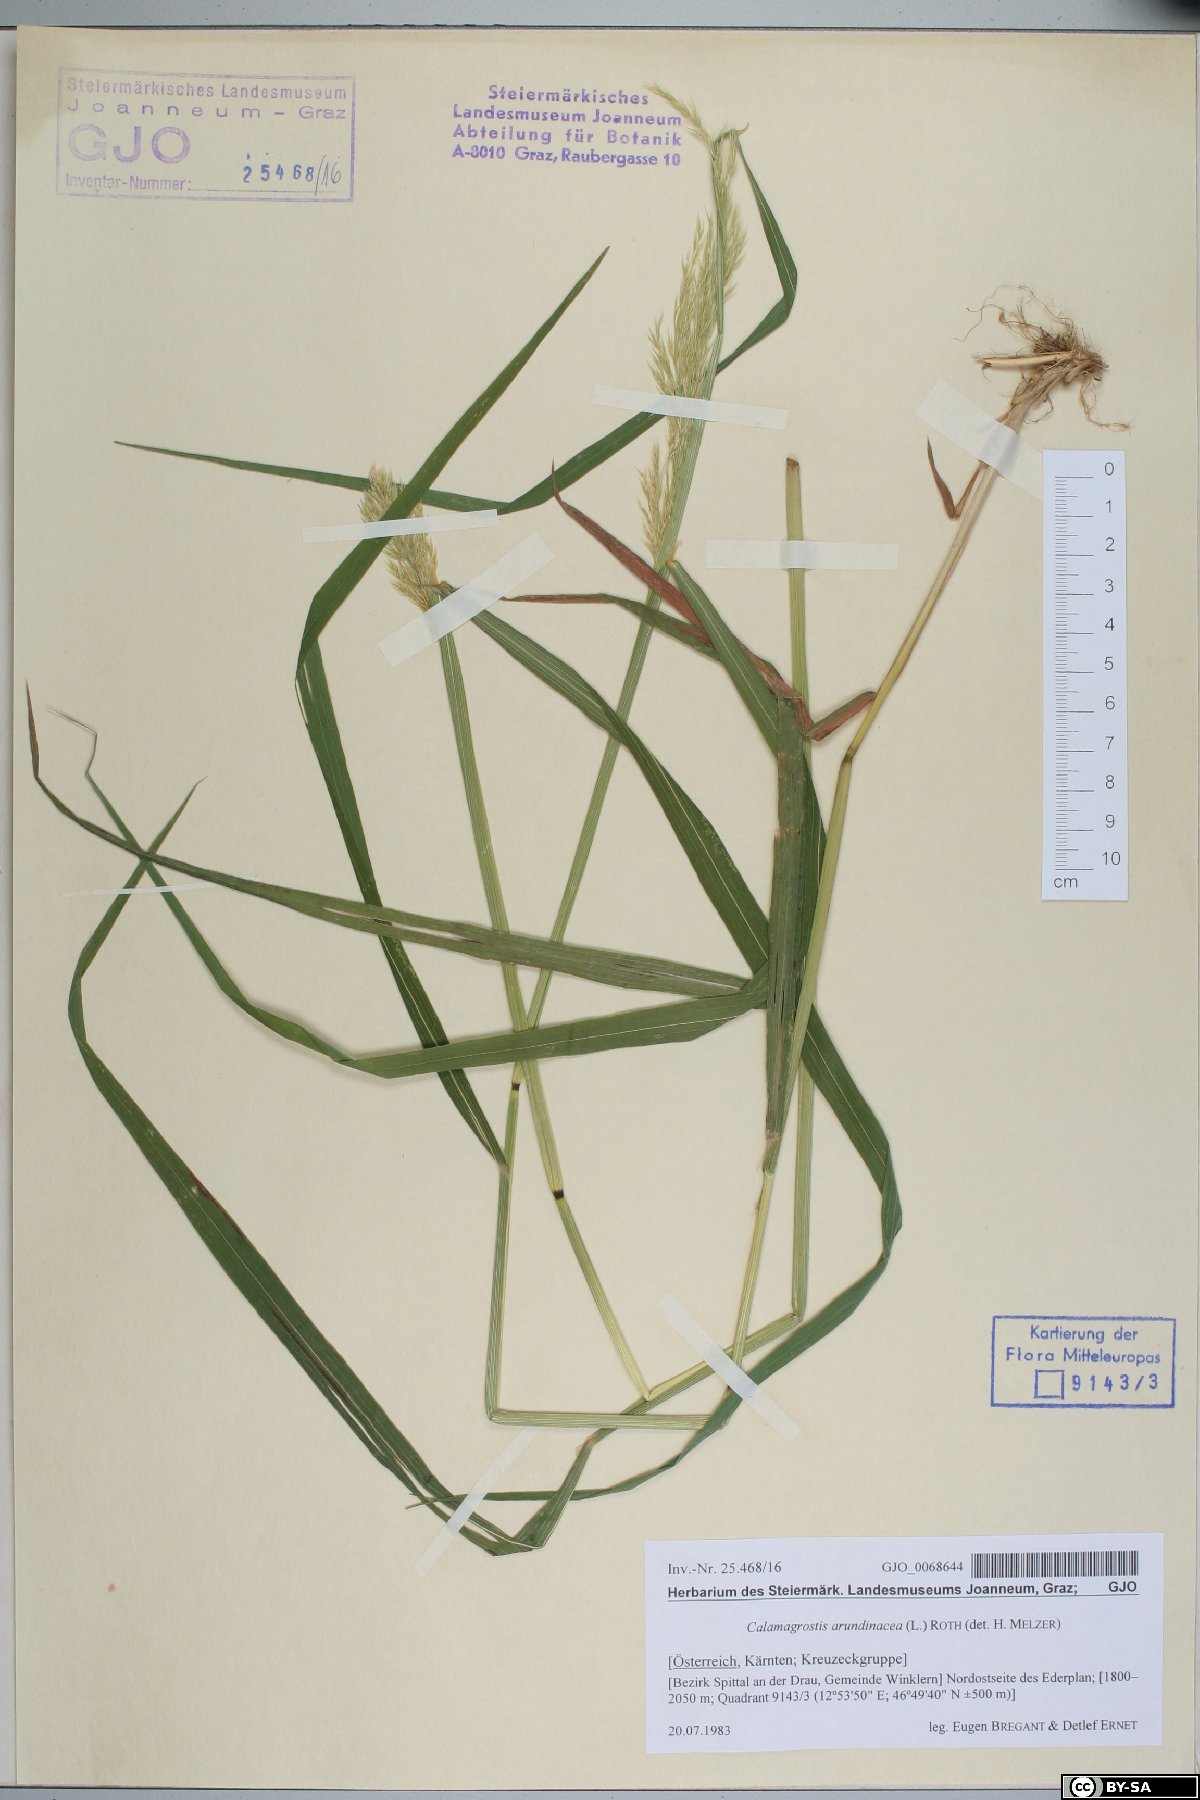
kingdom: Plantae
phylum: Tracheophyta
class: Liliopsida
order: Poales
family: Poaceae
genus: Calamagrostis
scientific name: Calamagrostis arundinacea
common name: Metskastik
